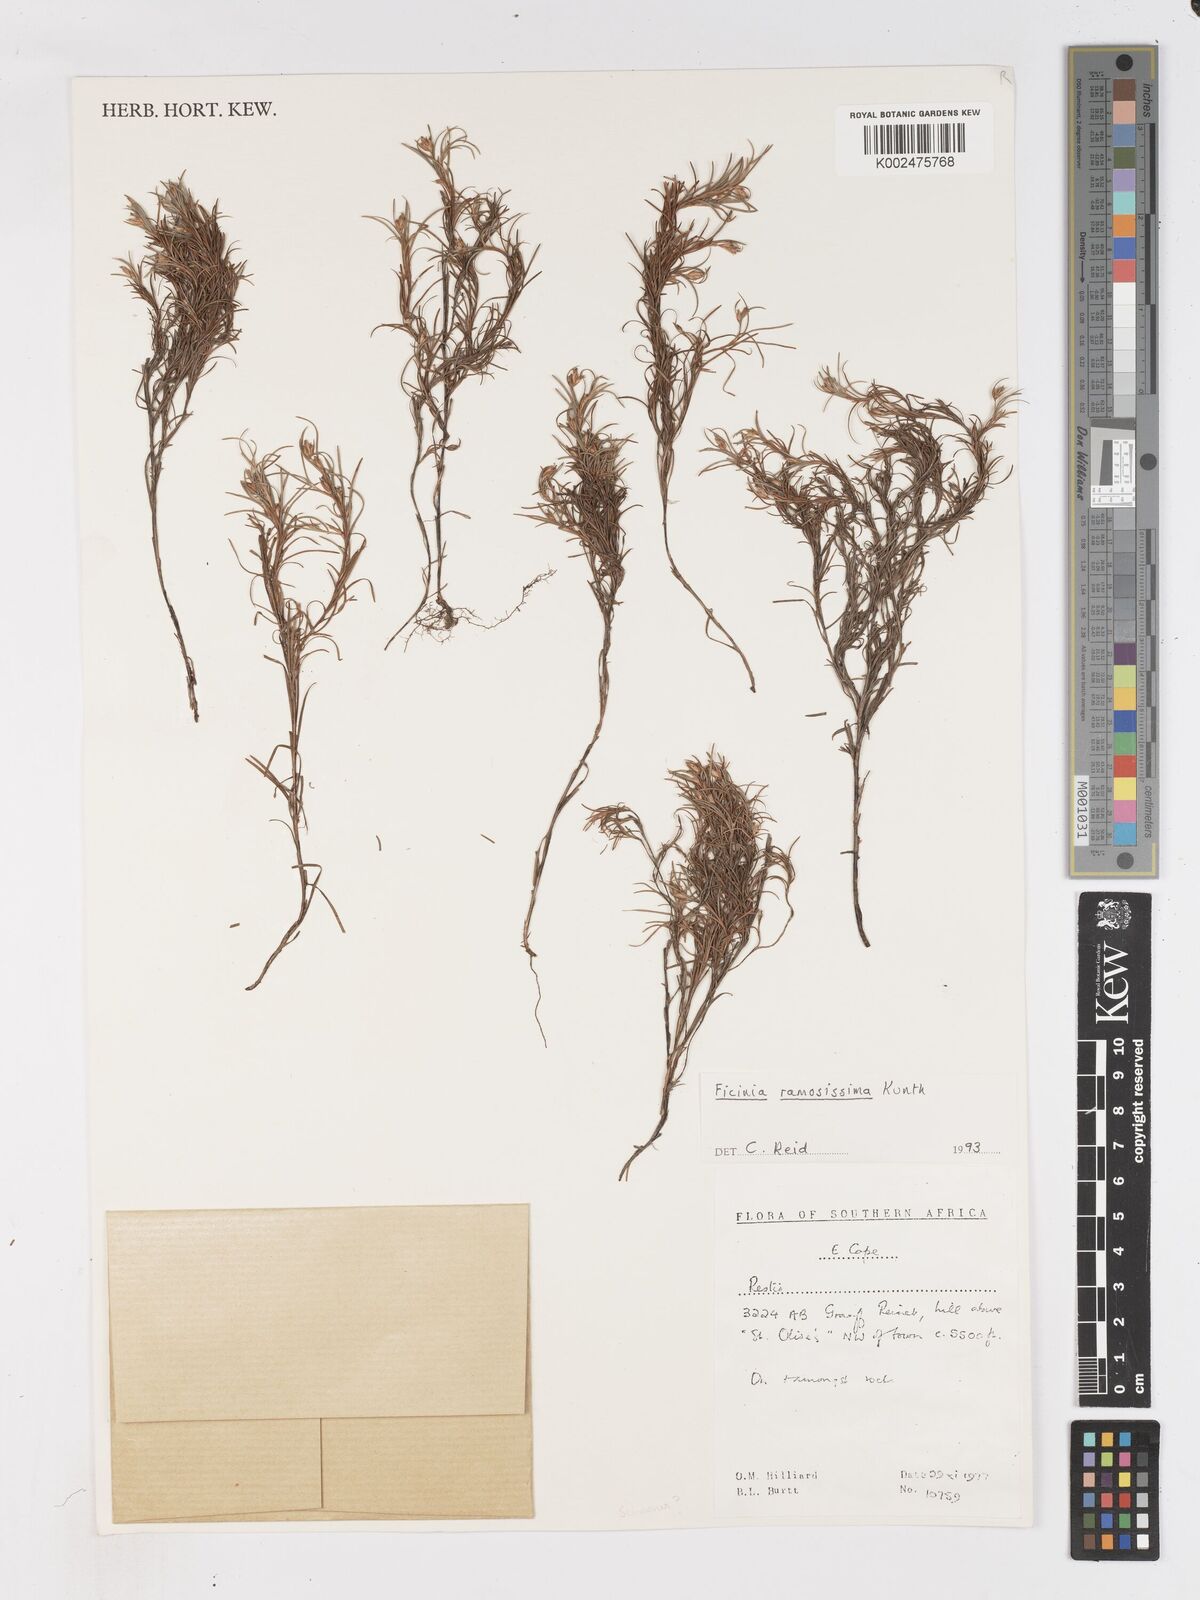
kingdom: Plantae
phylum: Tracheophyta
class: Liliopsida
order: Poales
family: Cyperaceae
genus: Ficinia
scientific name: Ficinia ramosissima
